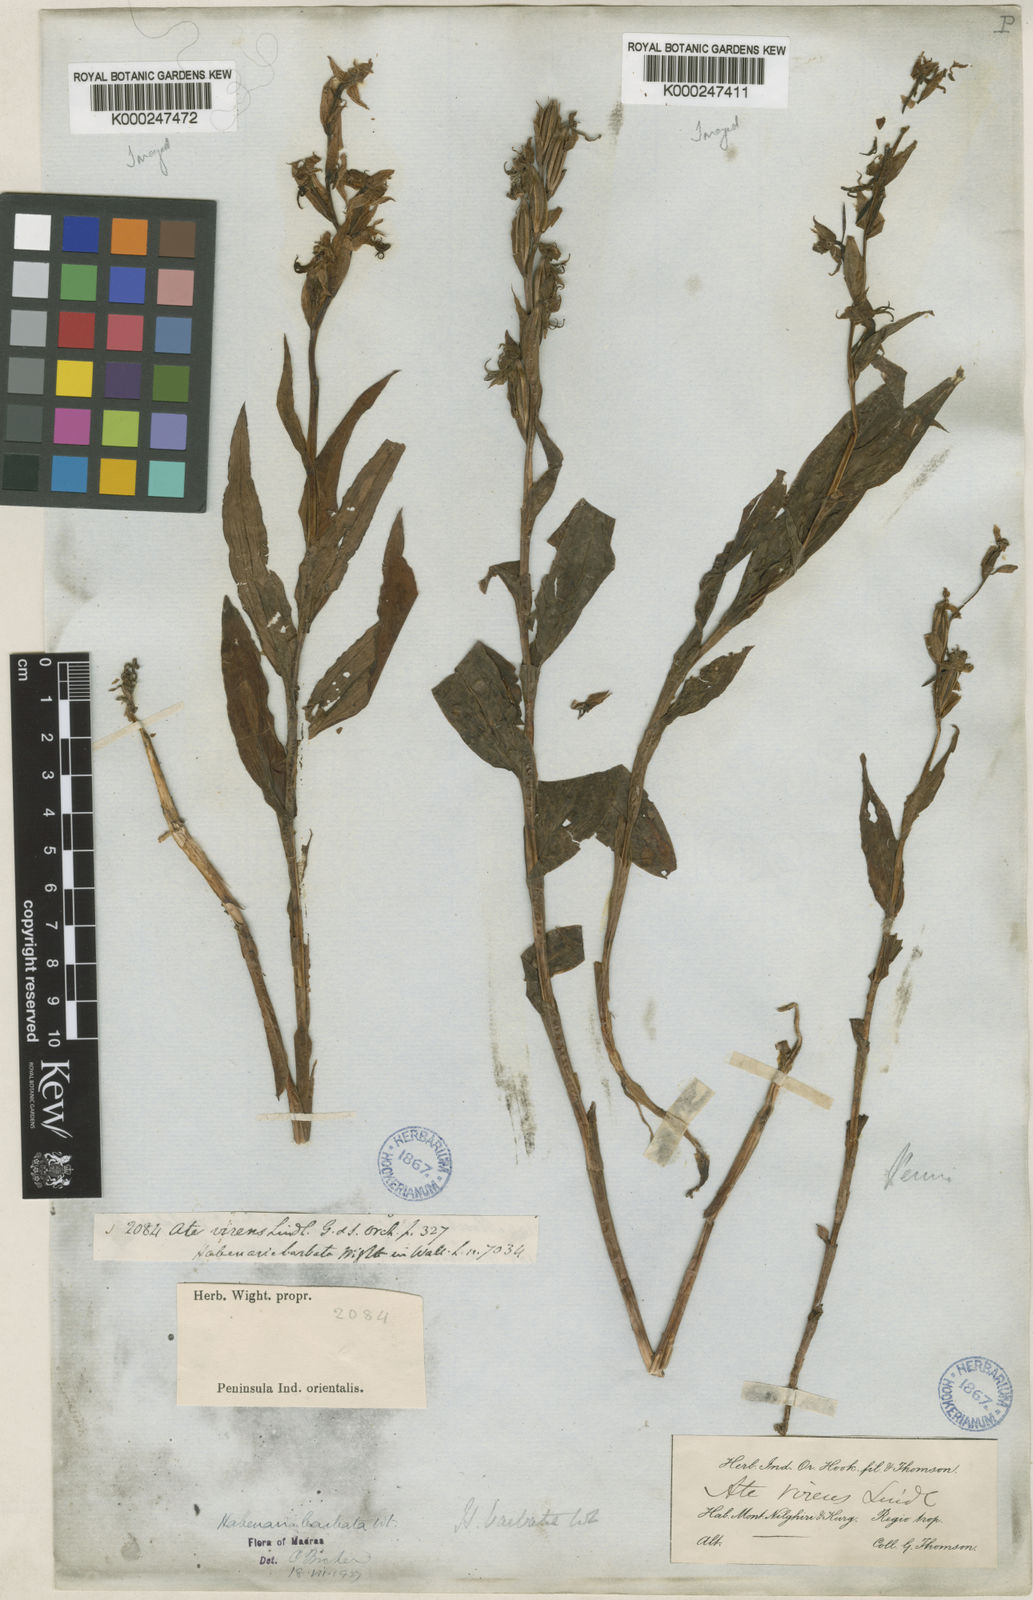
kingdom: Plantae
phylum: Tracheophyta
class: Liliopsida
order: Asparagales
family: Orchidaceae
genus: Habenaria
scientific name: Habenaria
